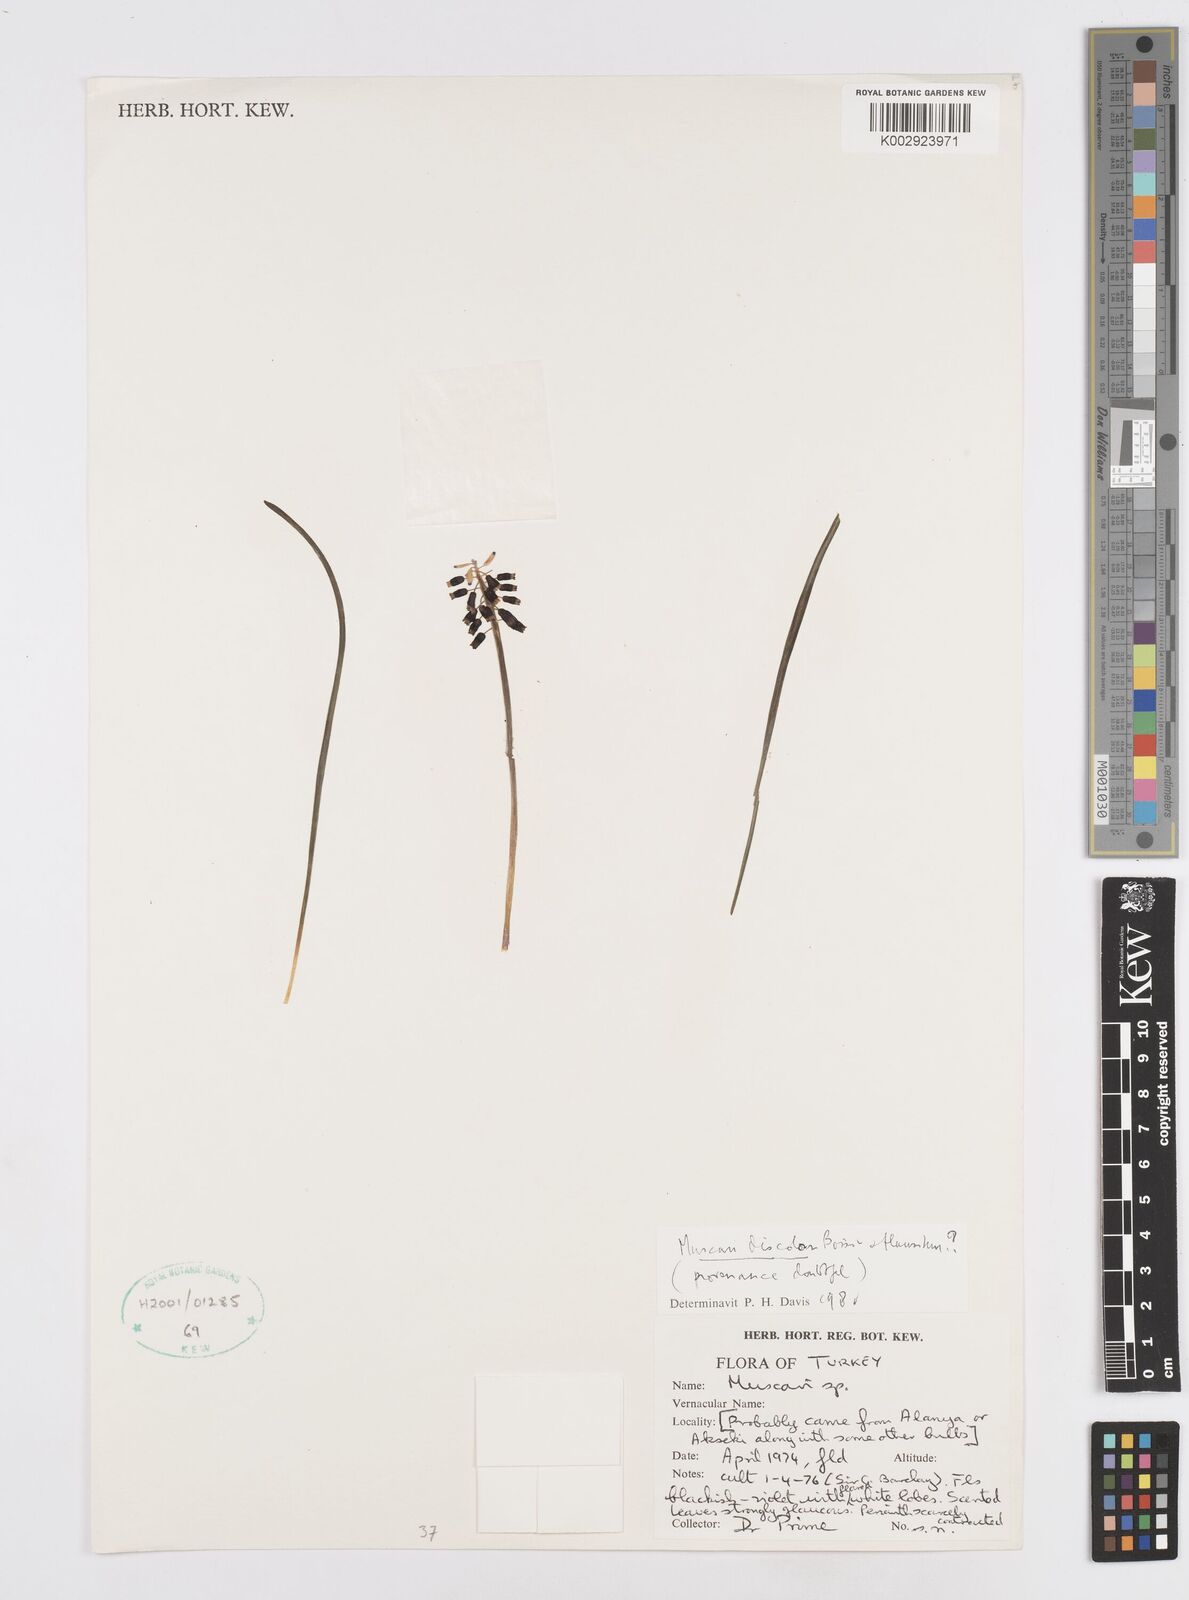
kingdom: Plantae
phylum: Tracheophyta
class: Liliopsida
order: Asparagales
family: Asparagaceae
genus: Muscari
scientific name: Muscari discolor
